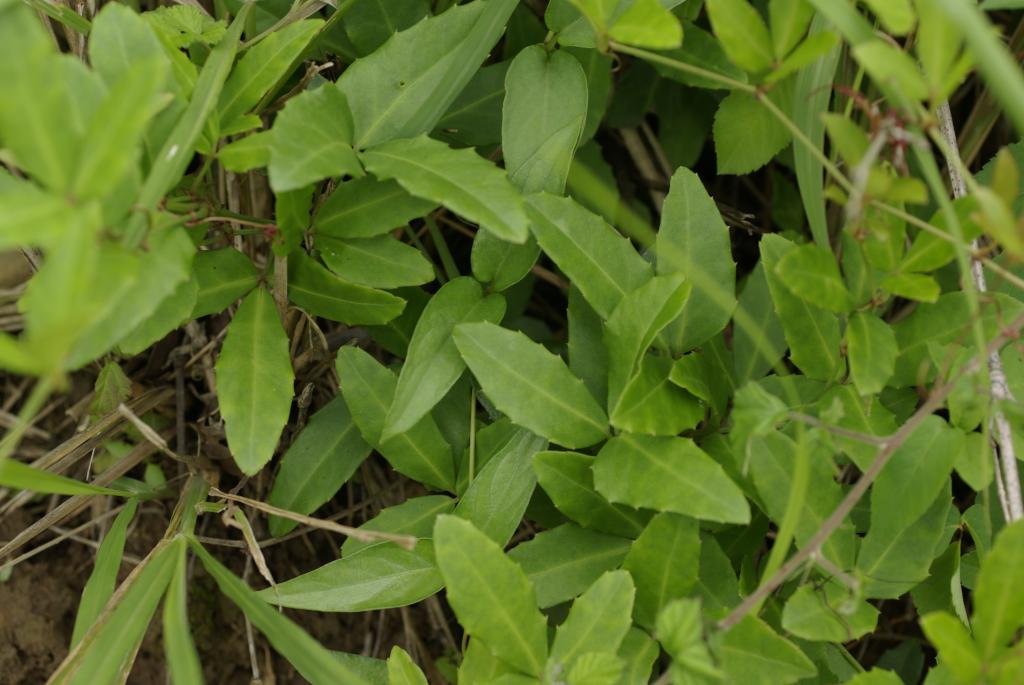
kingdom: Plantae
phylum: Tracheophyta
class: Magnoliopsida
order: Vitales
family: Vitaceae
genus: Tetrastigma
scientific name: Tetrastigma formosanum
